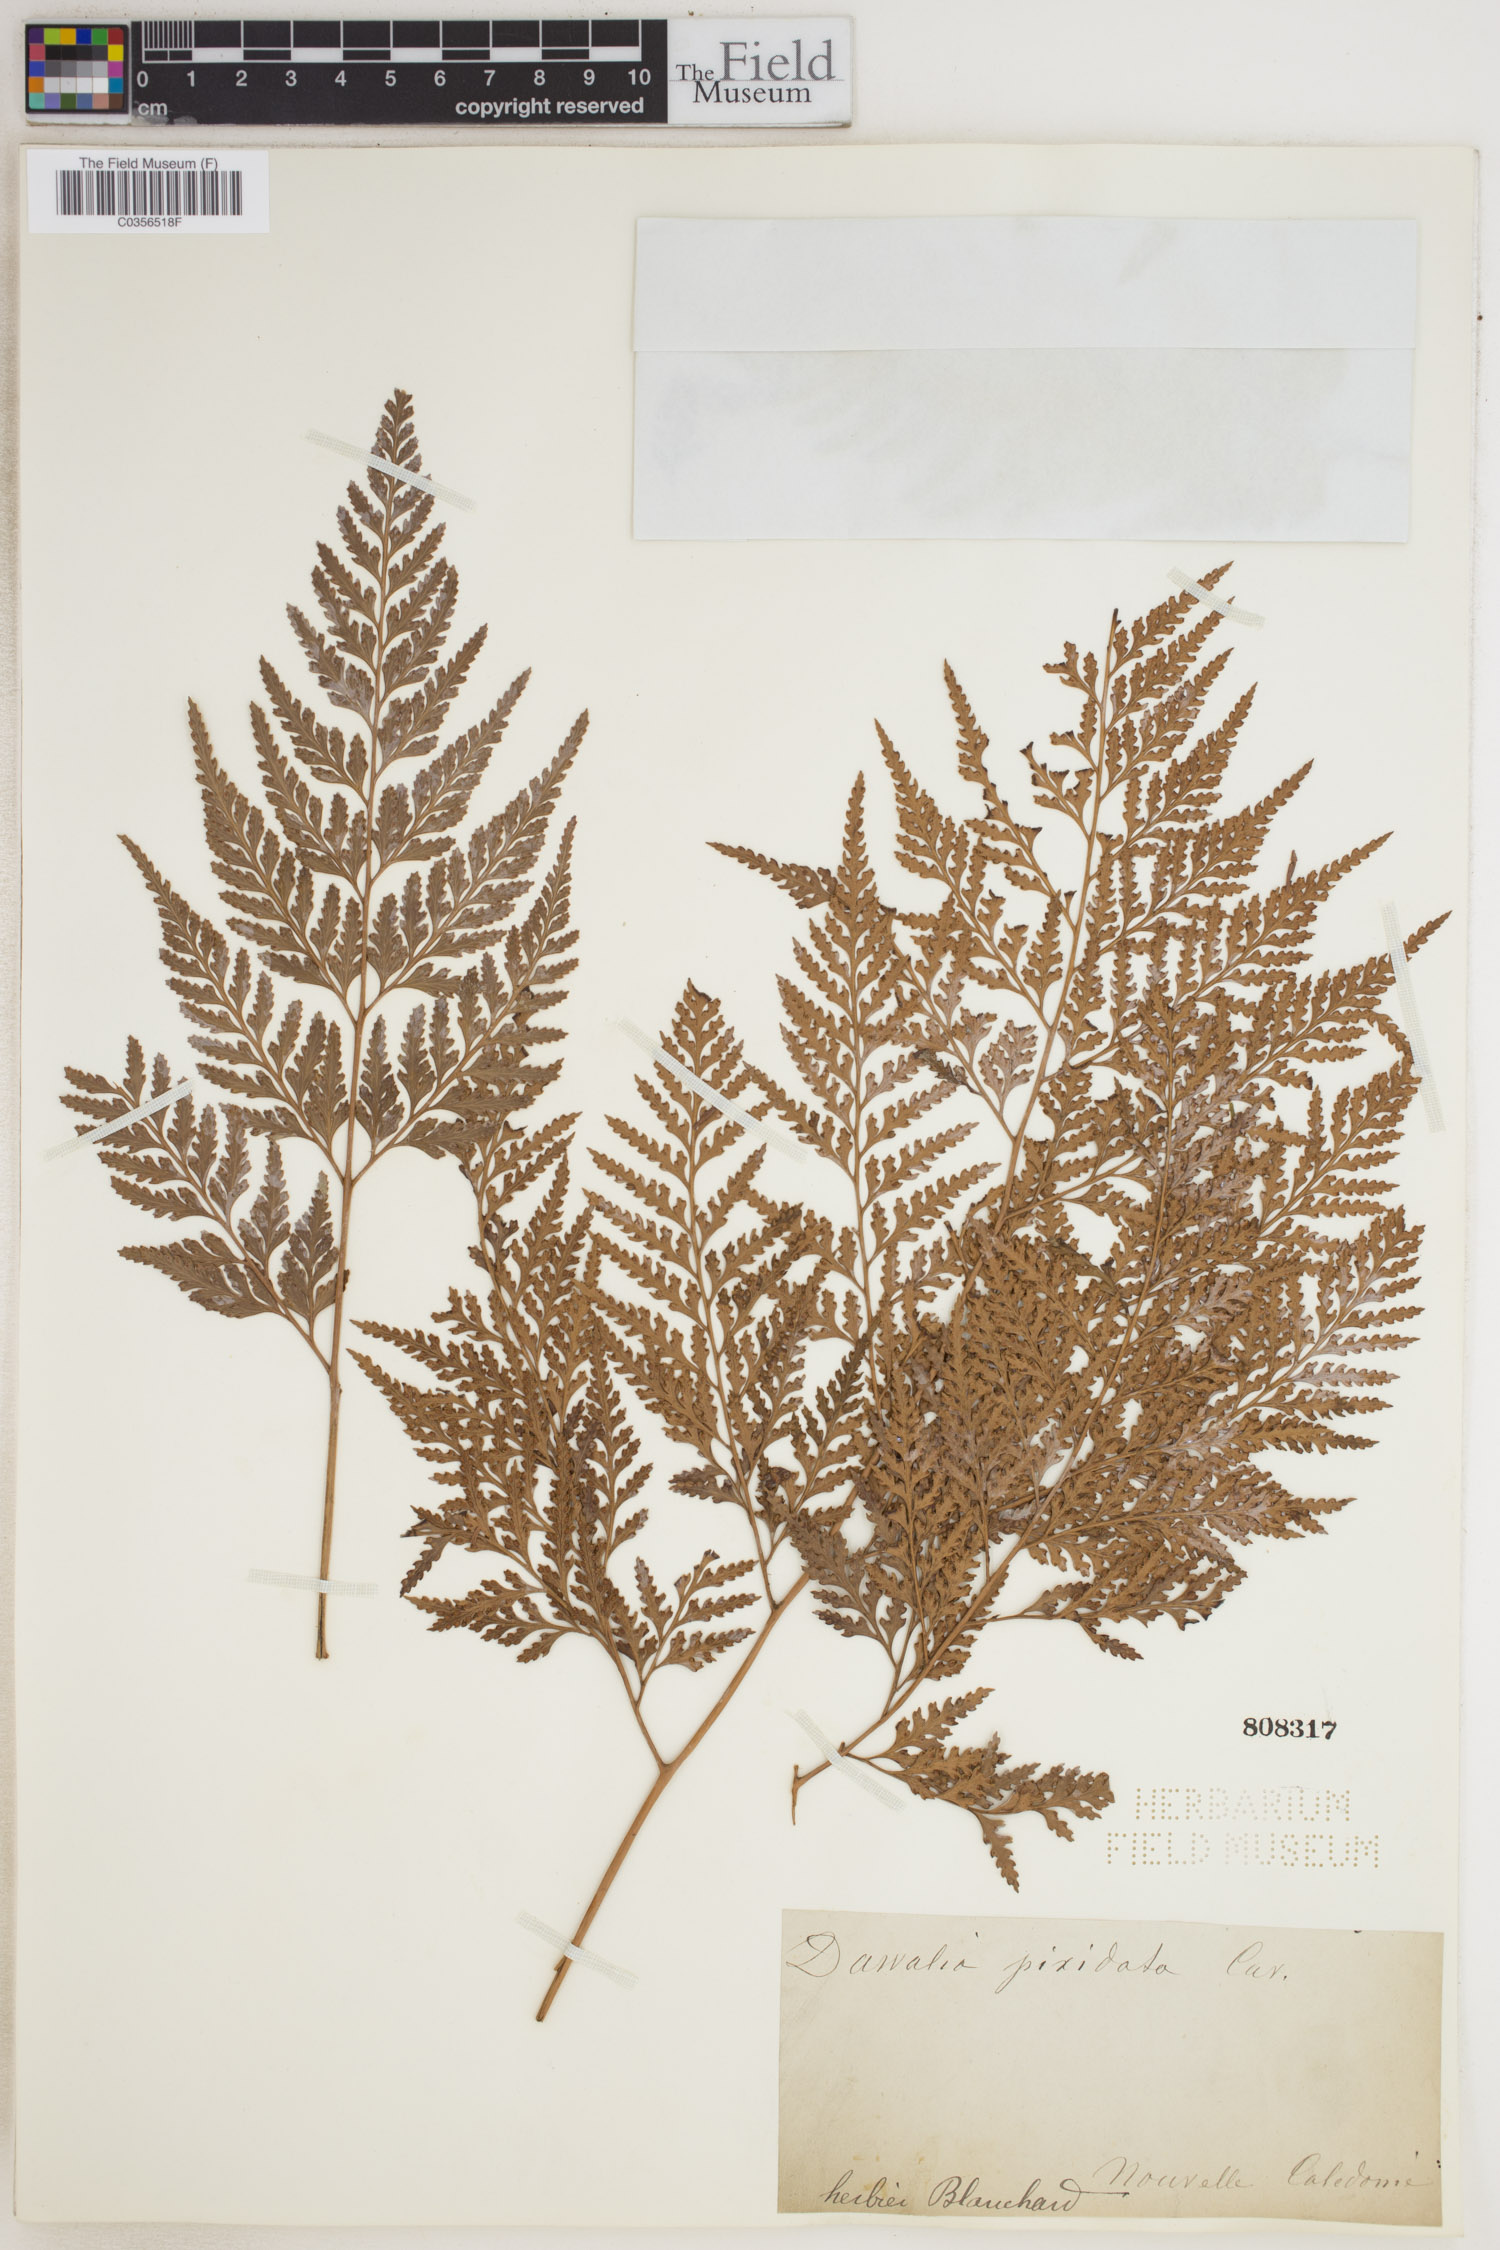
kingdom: Plantae
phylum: Tracheophyta
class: Polypodiopsida
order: Polypodiales
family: Davalliaceae
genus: Davallia
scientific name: Davallia pyxidata
